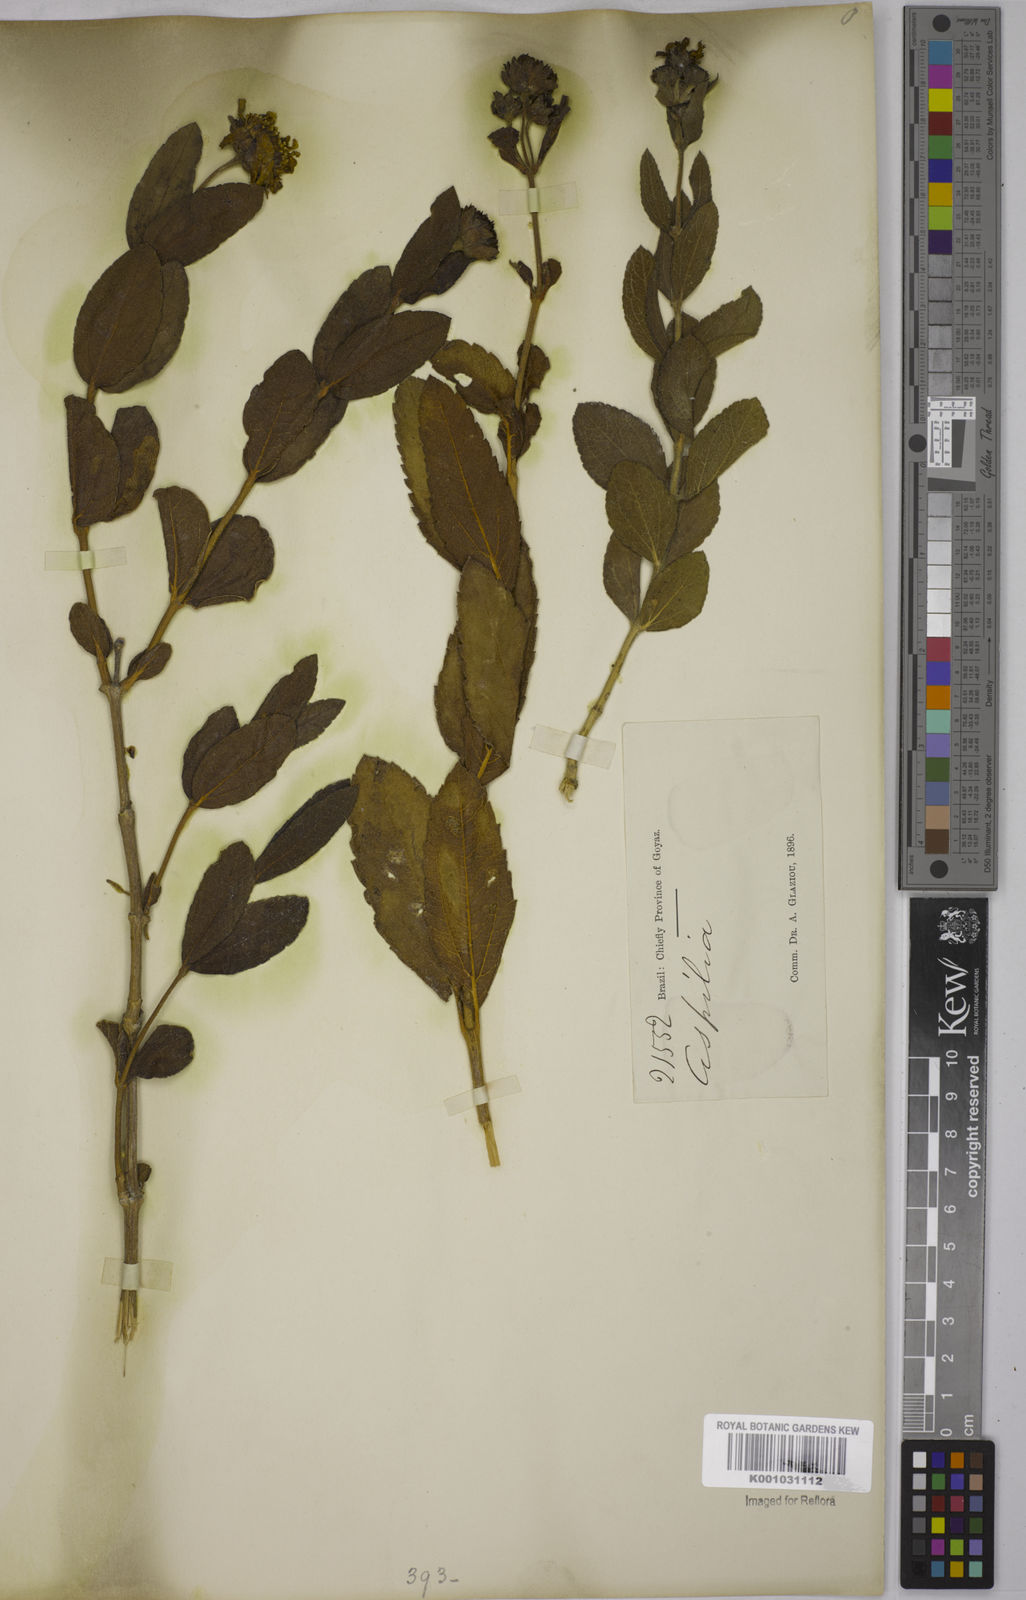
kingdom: Plantae
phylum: Tracheophyta
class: Magnoliopsida
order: Asterales
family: Asteraceae
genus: Aspilia
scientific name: Aspilia
